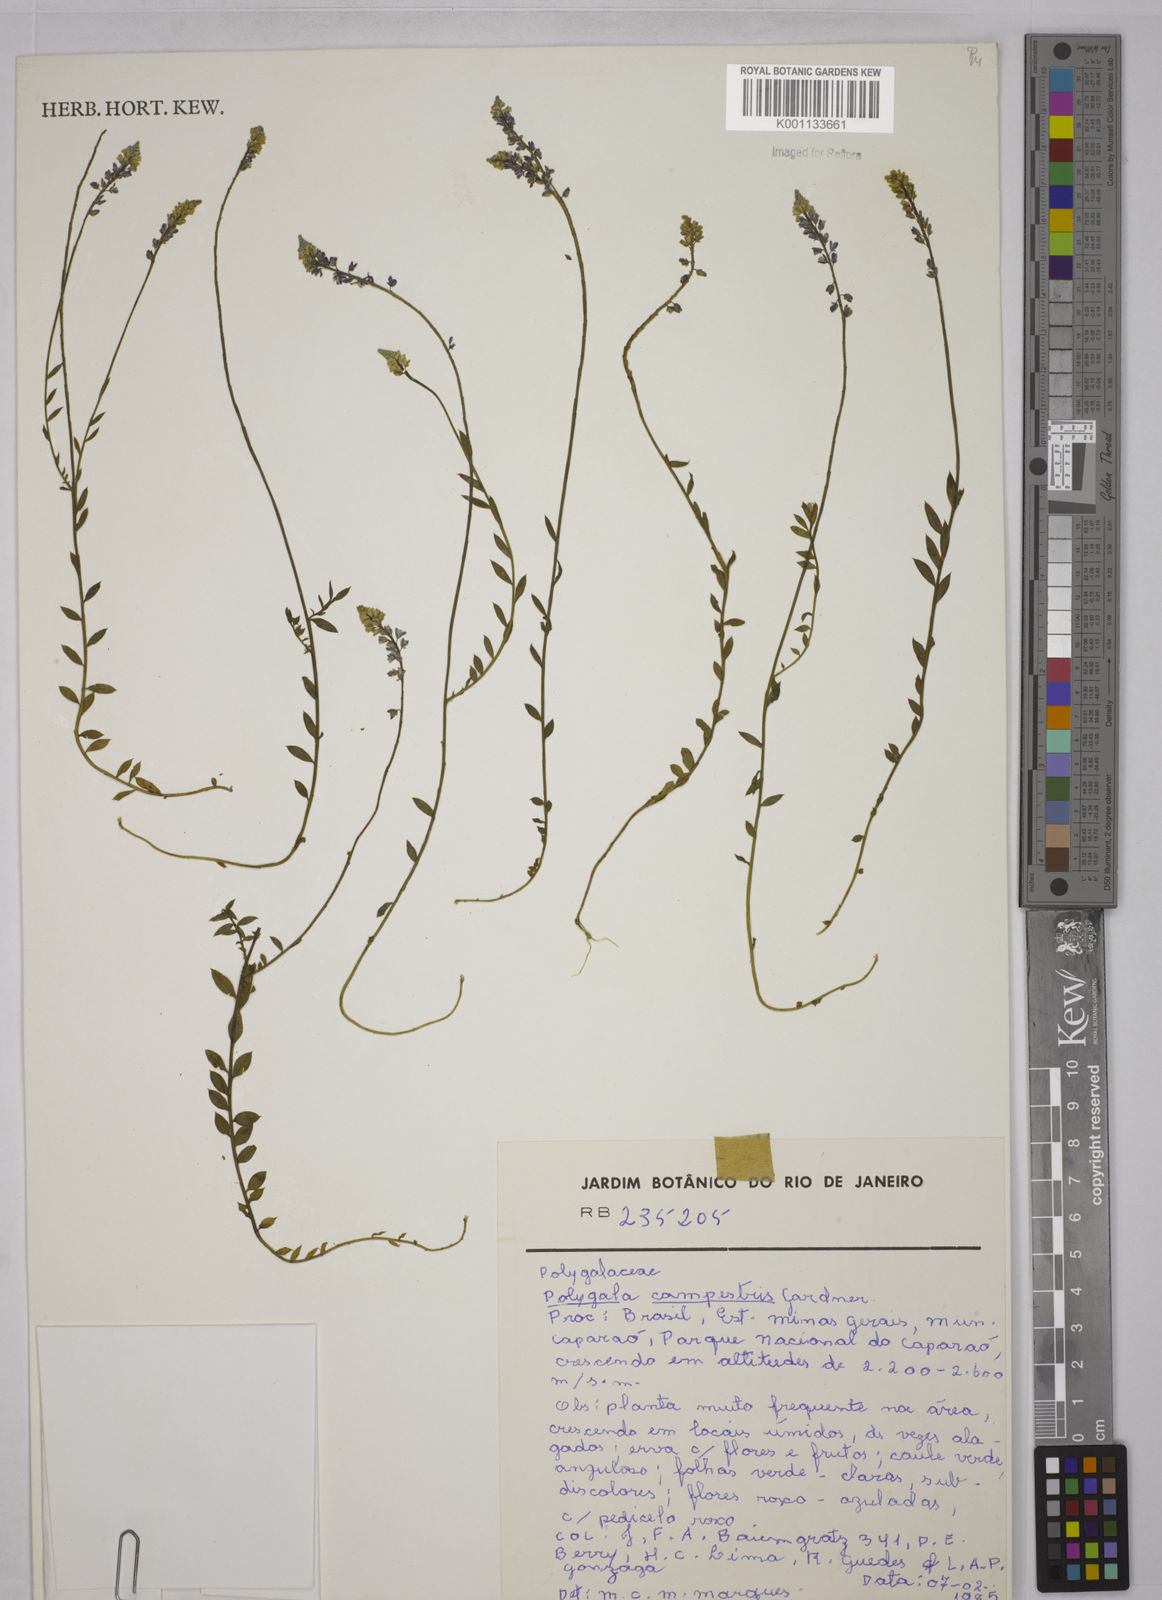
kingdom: Plantae
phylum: Tracheophyta
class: Magnoliopsida
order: Fabales
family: Polygalaceae
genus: Polygala
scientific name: Polygala campestris
